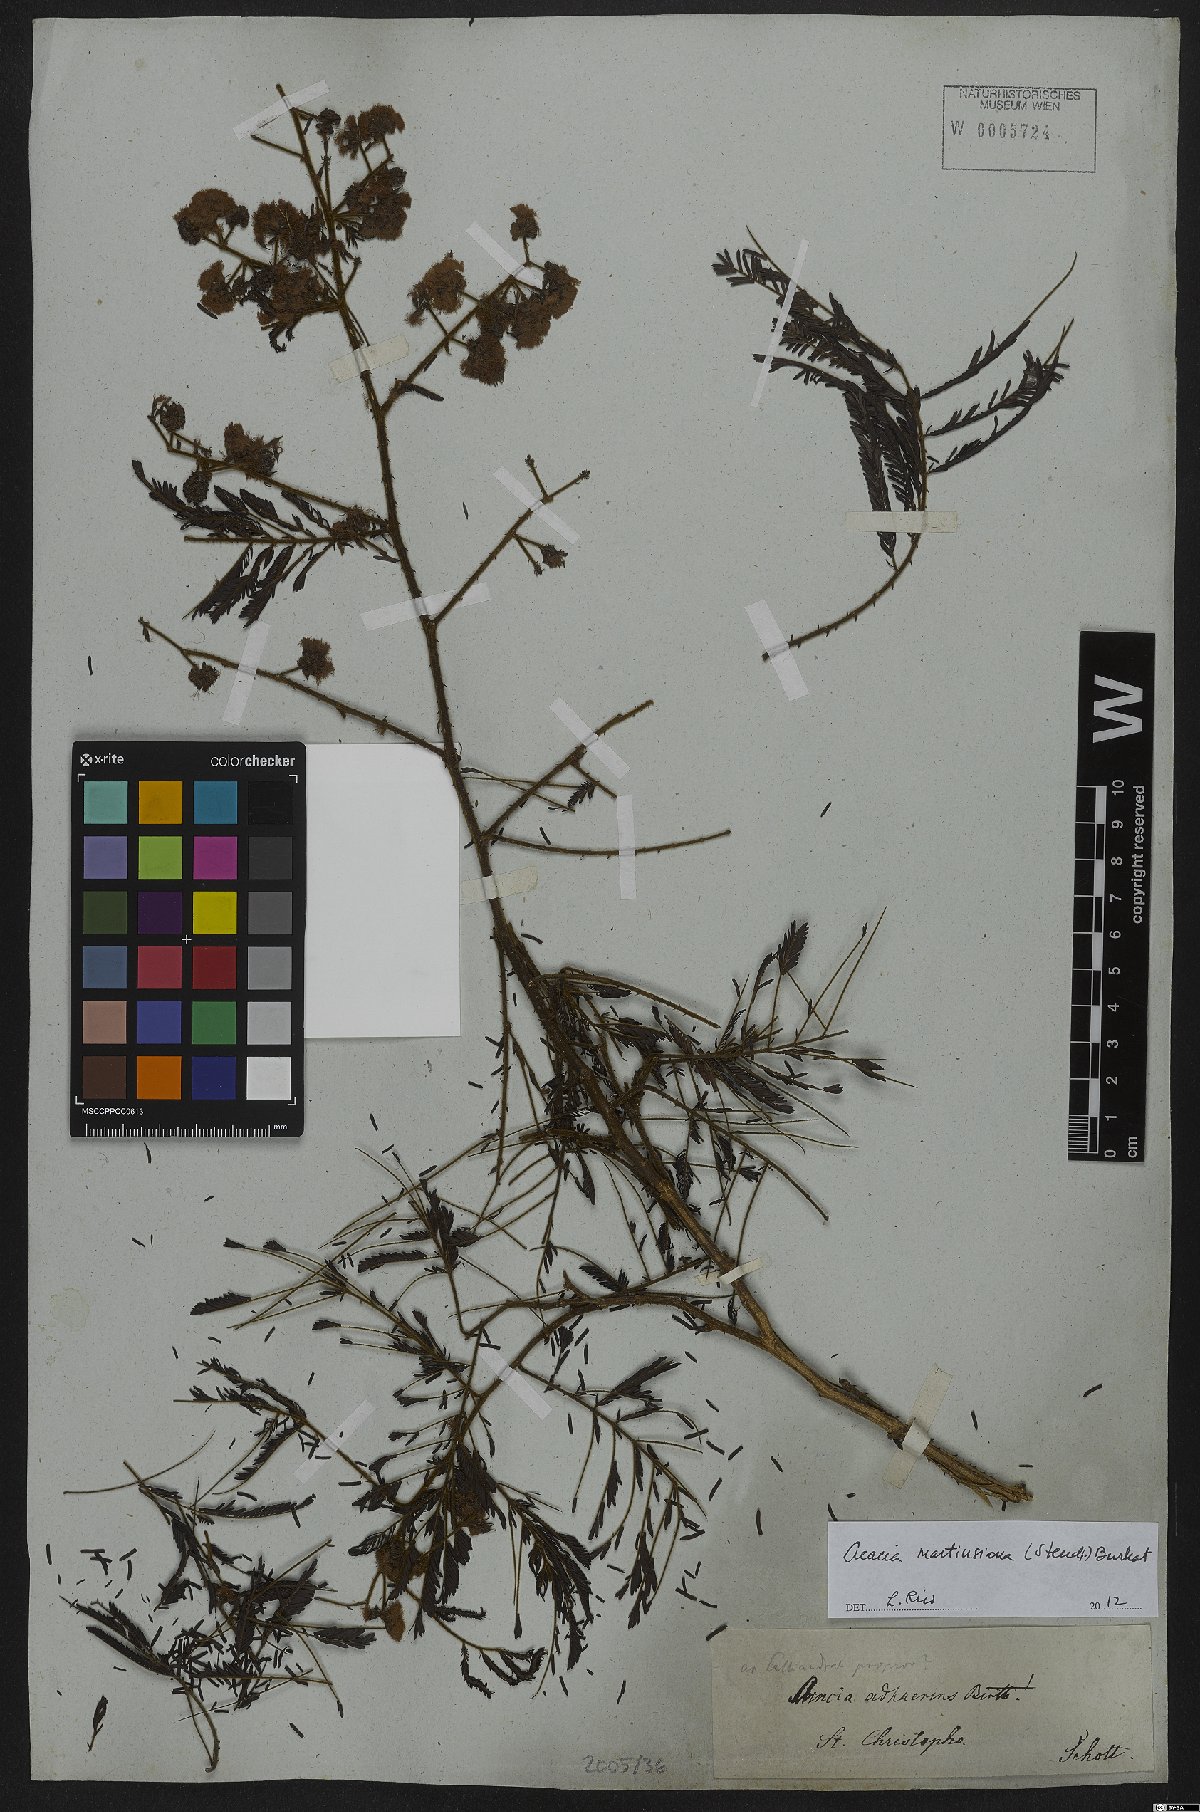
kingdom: Plantae
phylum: Tracheophyta
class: Magnoliopsida
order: Fabales
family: Fabaceae
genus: Senegalia
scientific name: Senegalia martiusiana
